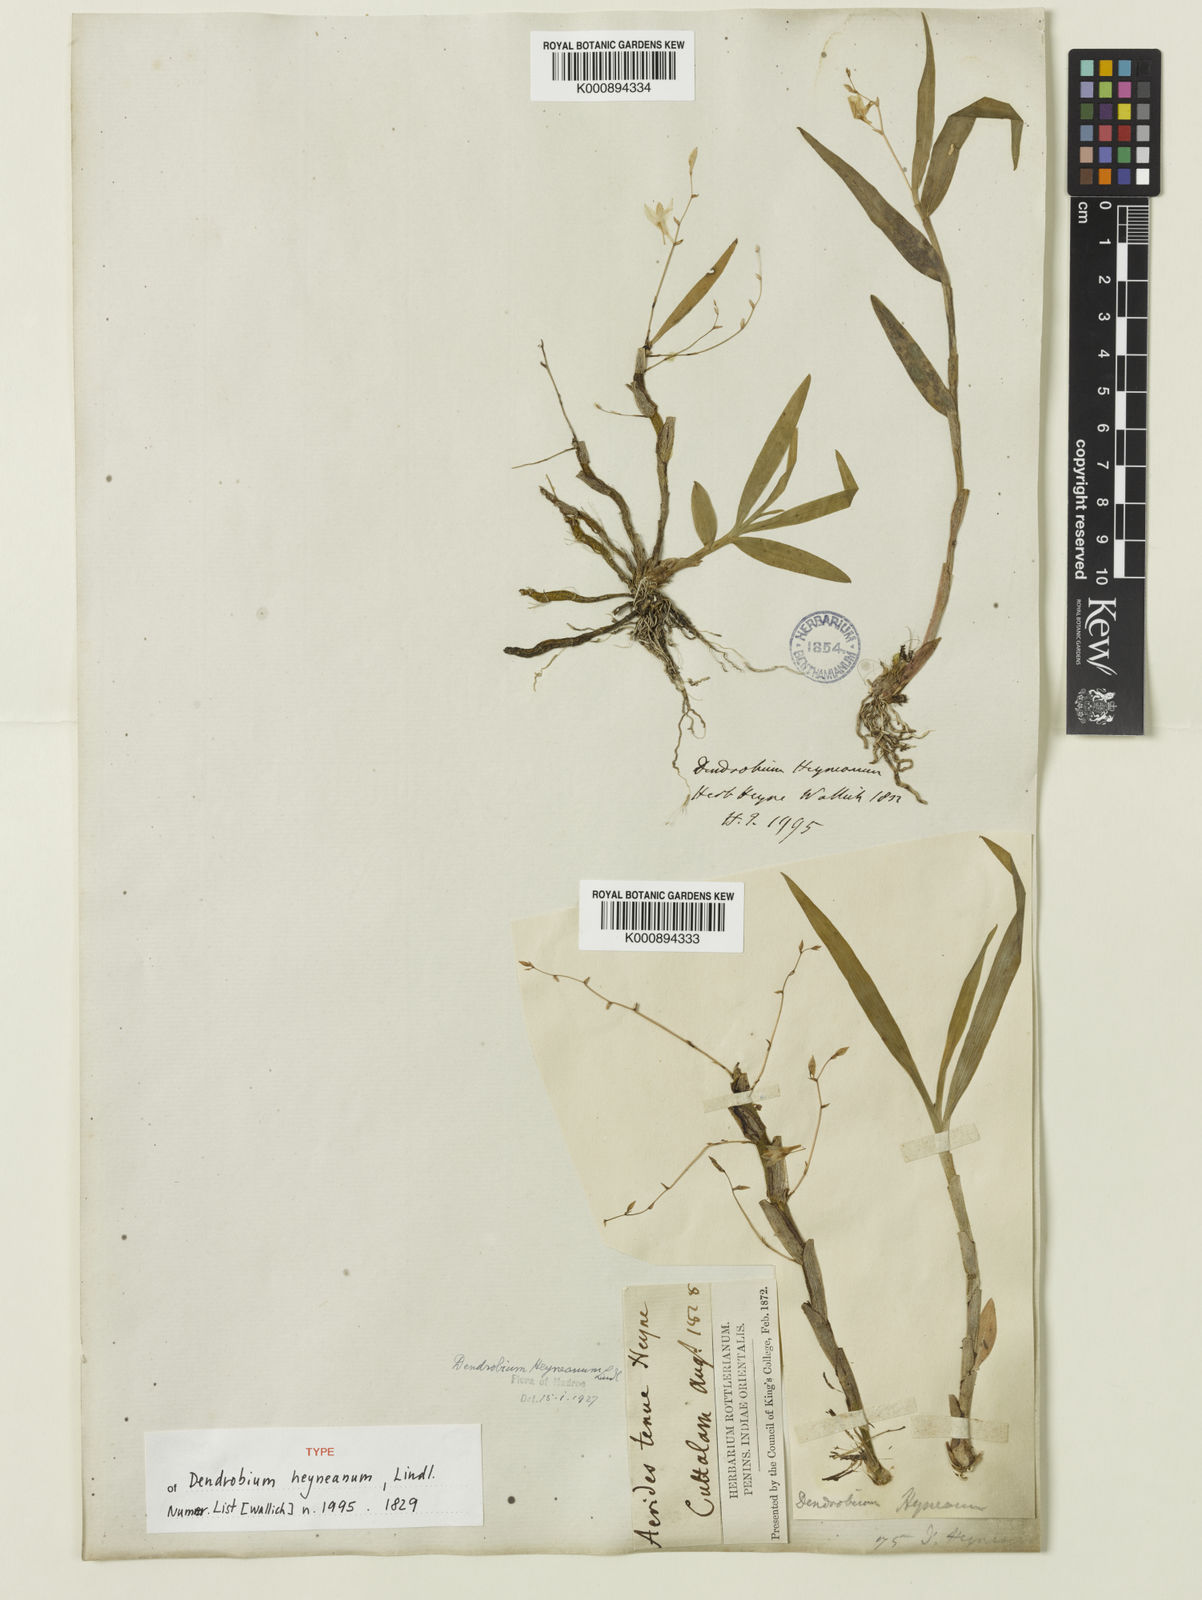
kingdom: Plantae
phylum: Tracheophyta
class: Liliopsida
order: Asparagales
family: Orchidaceae
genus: Dendrobium
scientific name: Dendrobium heyneanum
